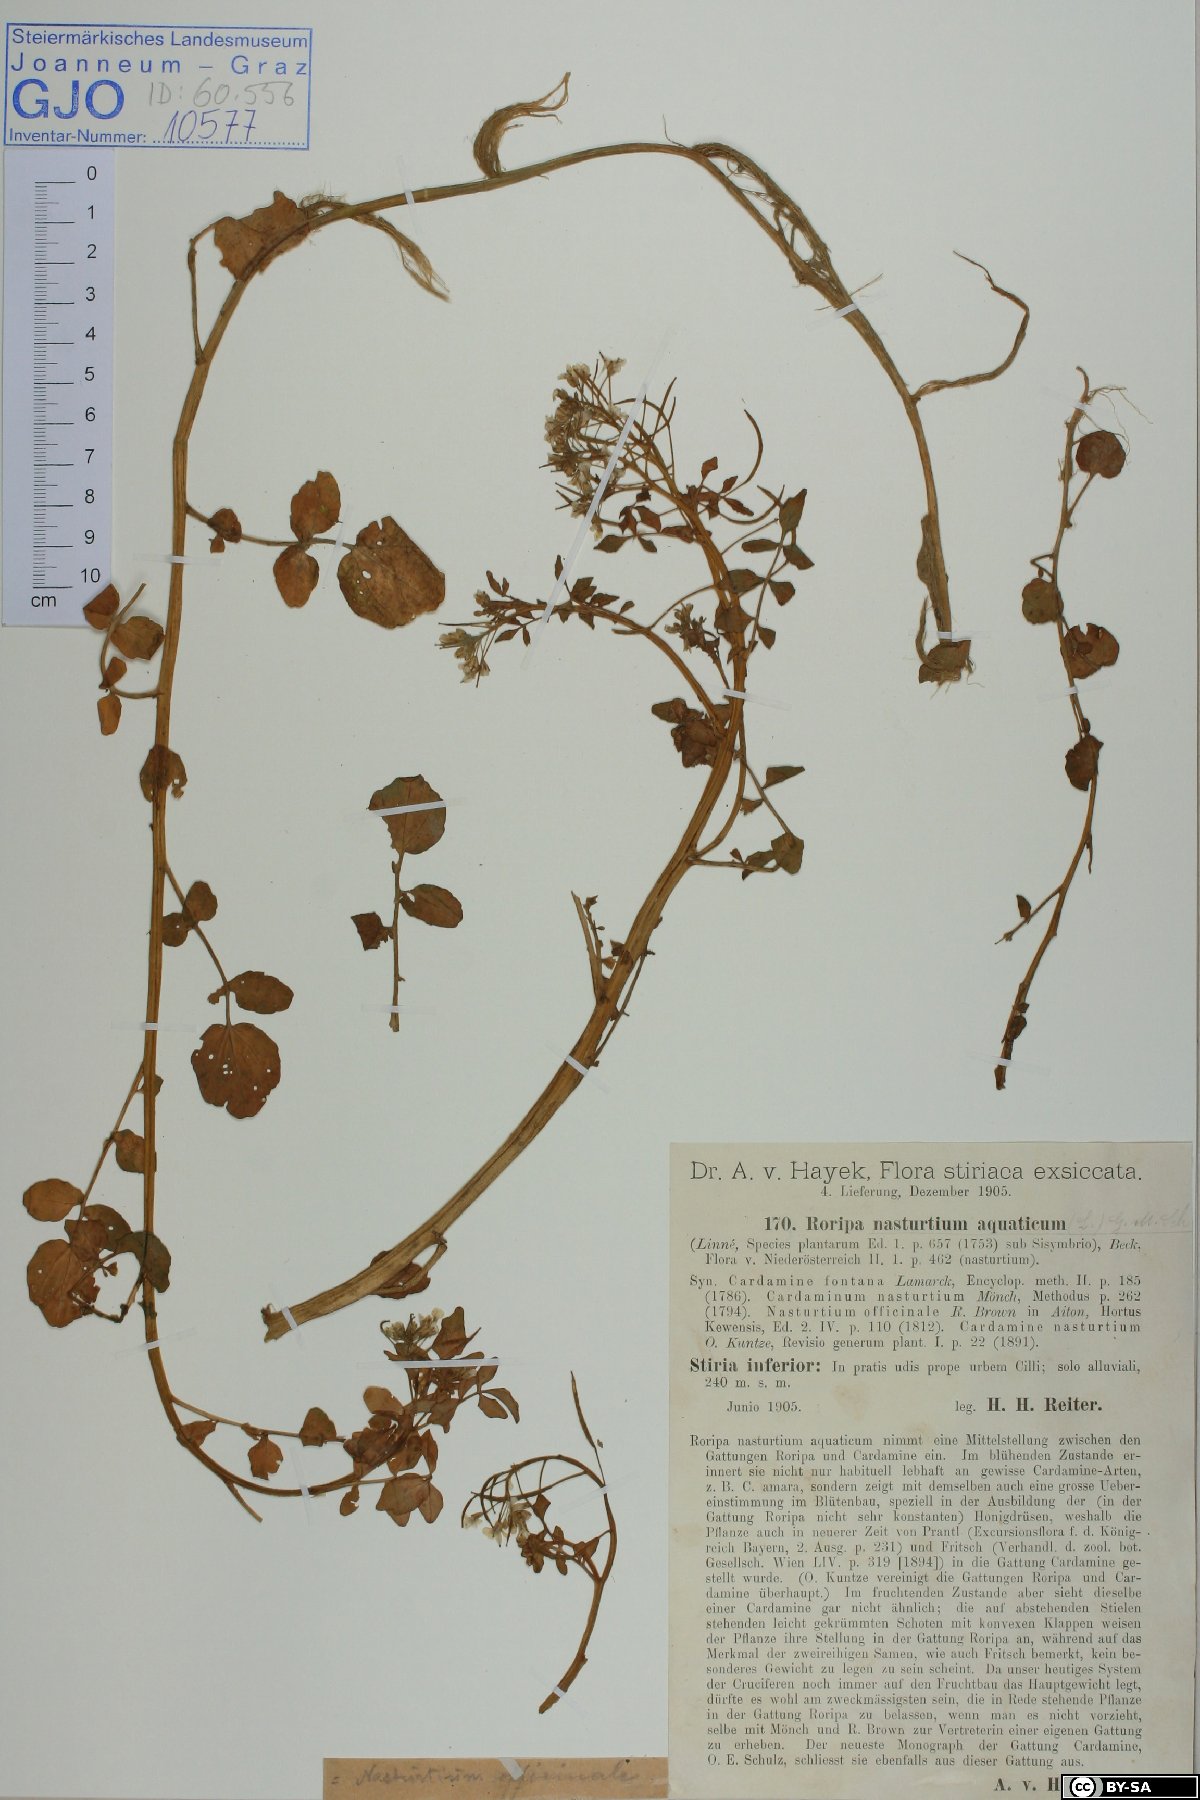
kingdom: Plantae
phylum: Tracheophyta
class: Magnoliopsida
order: Brassicales
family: Brassicaceae
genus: Nasturtium
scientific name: Nasturtium officinale
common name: Watercress
